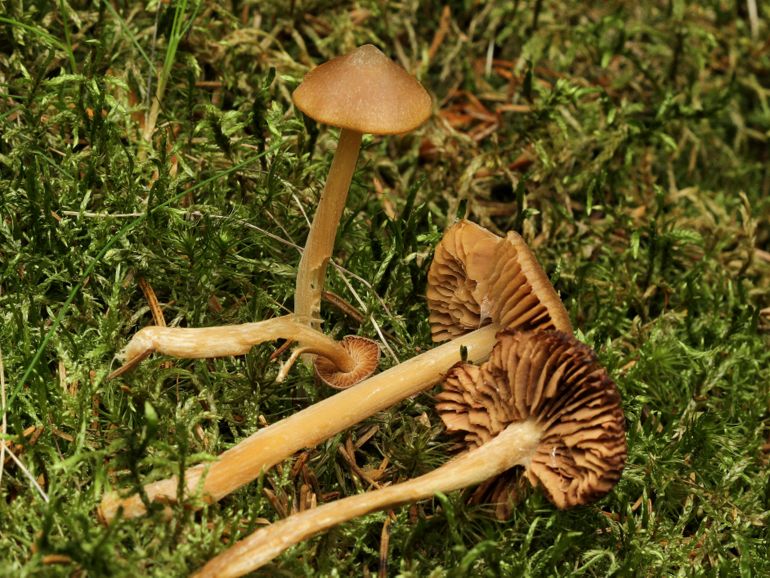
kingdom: Fungi
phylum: Basidiomycota
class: Agaricomycetes
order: Agaricales
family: Entolomataceae
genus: Entoloma
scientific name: Entoloma pallescens
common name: tidlig rødblad
